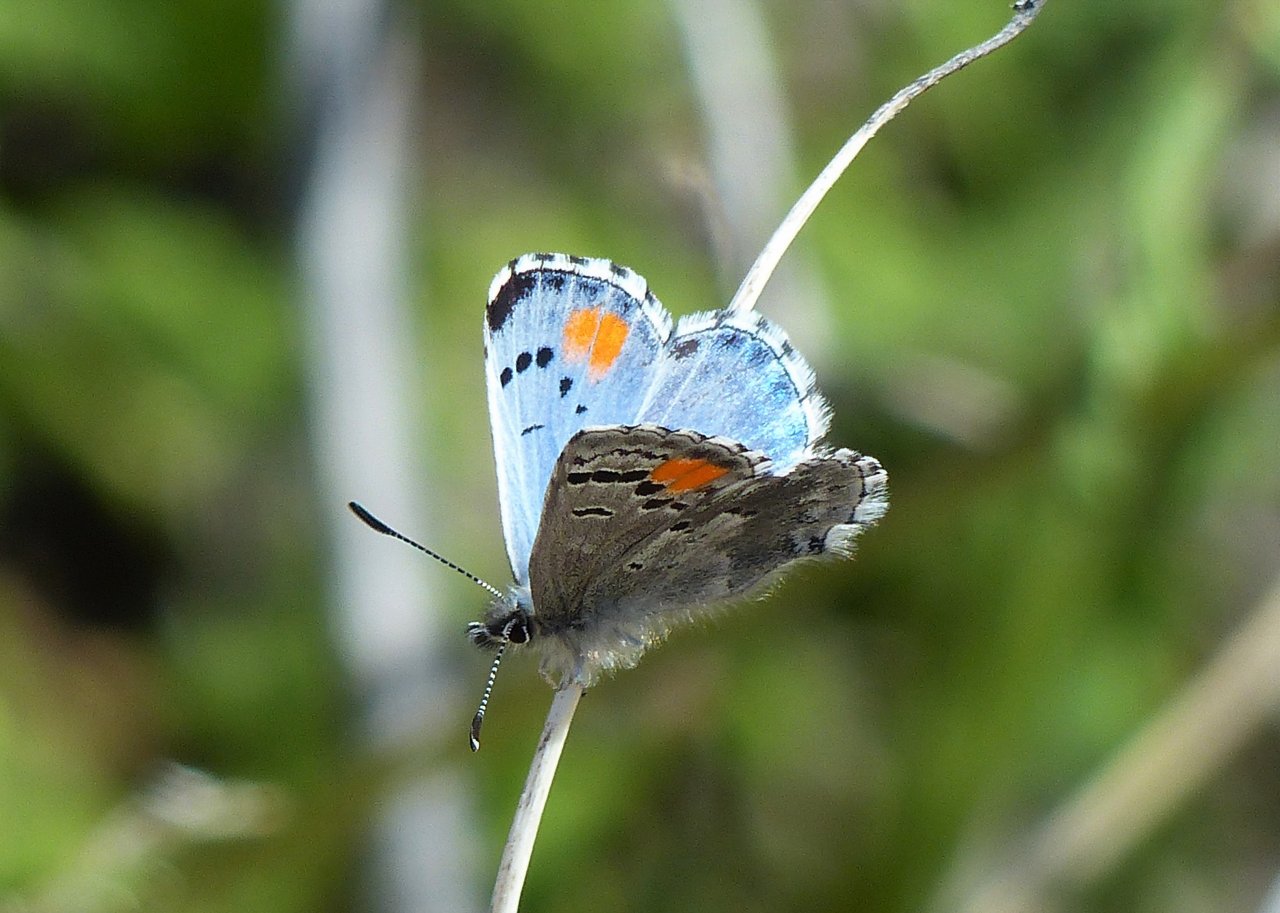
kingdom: Animalia
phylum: Arthropoda
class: Insecta
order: Lepidoptera
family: Lycaenidae
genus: Philotes
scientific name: Philotes sonorensis
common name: Sonoran Blue
